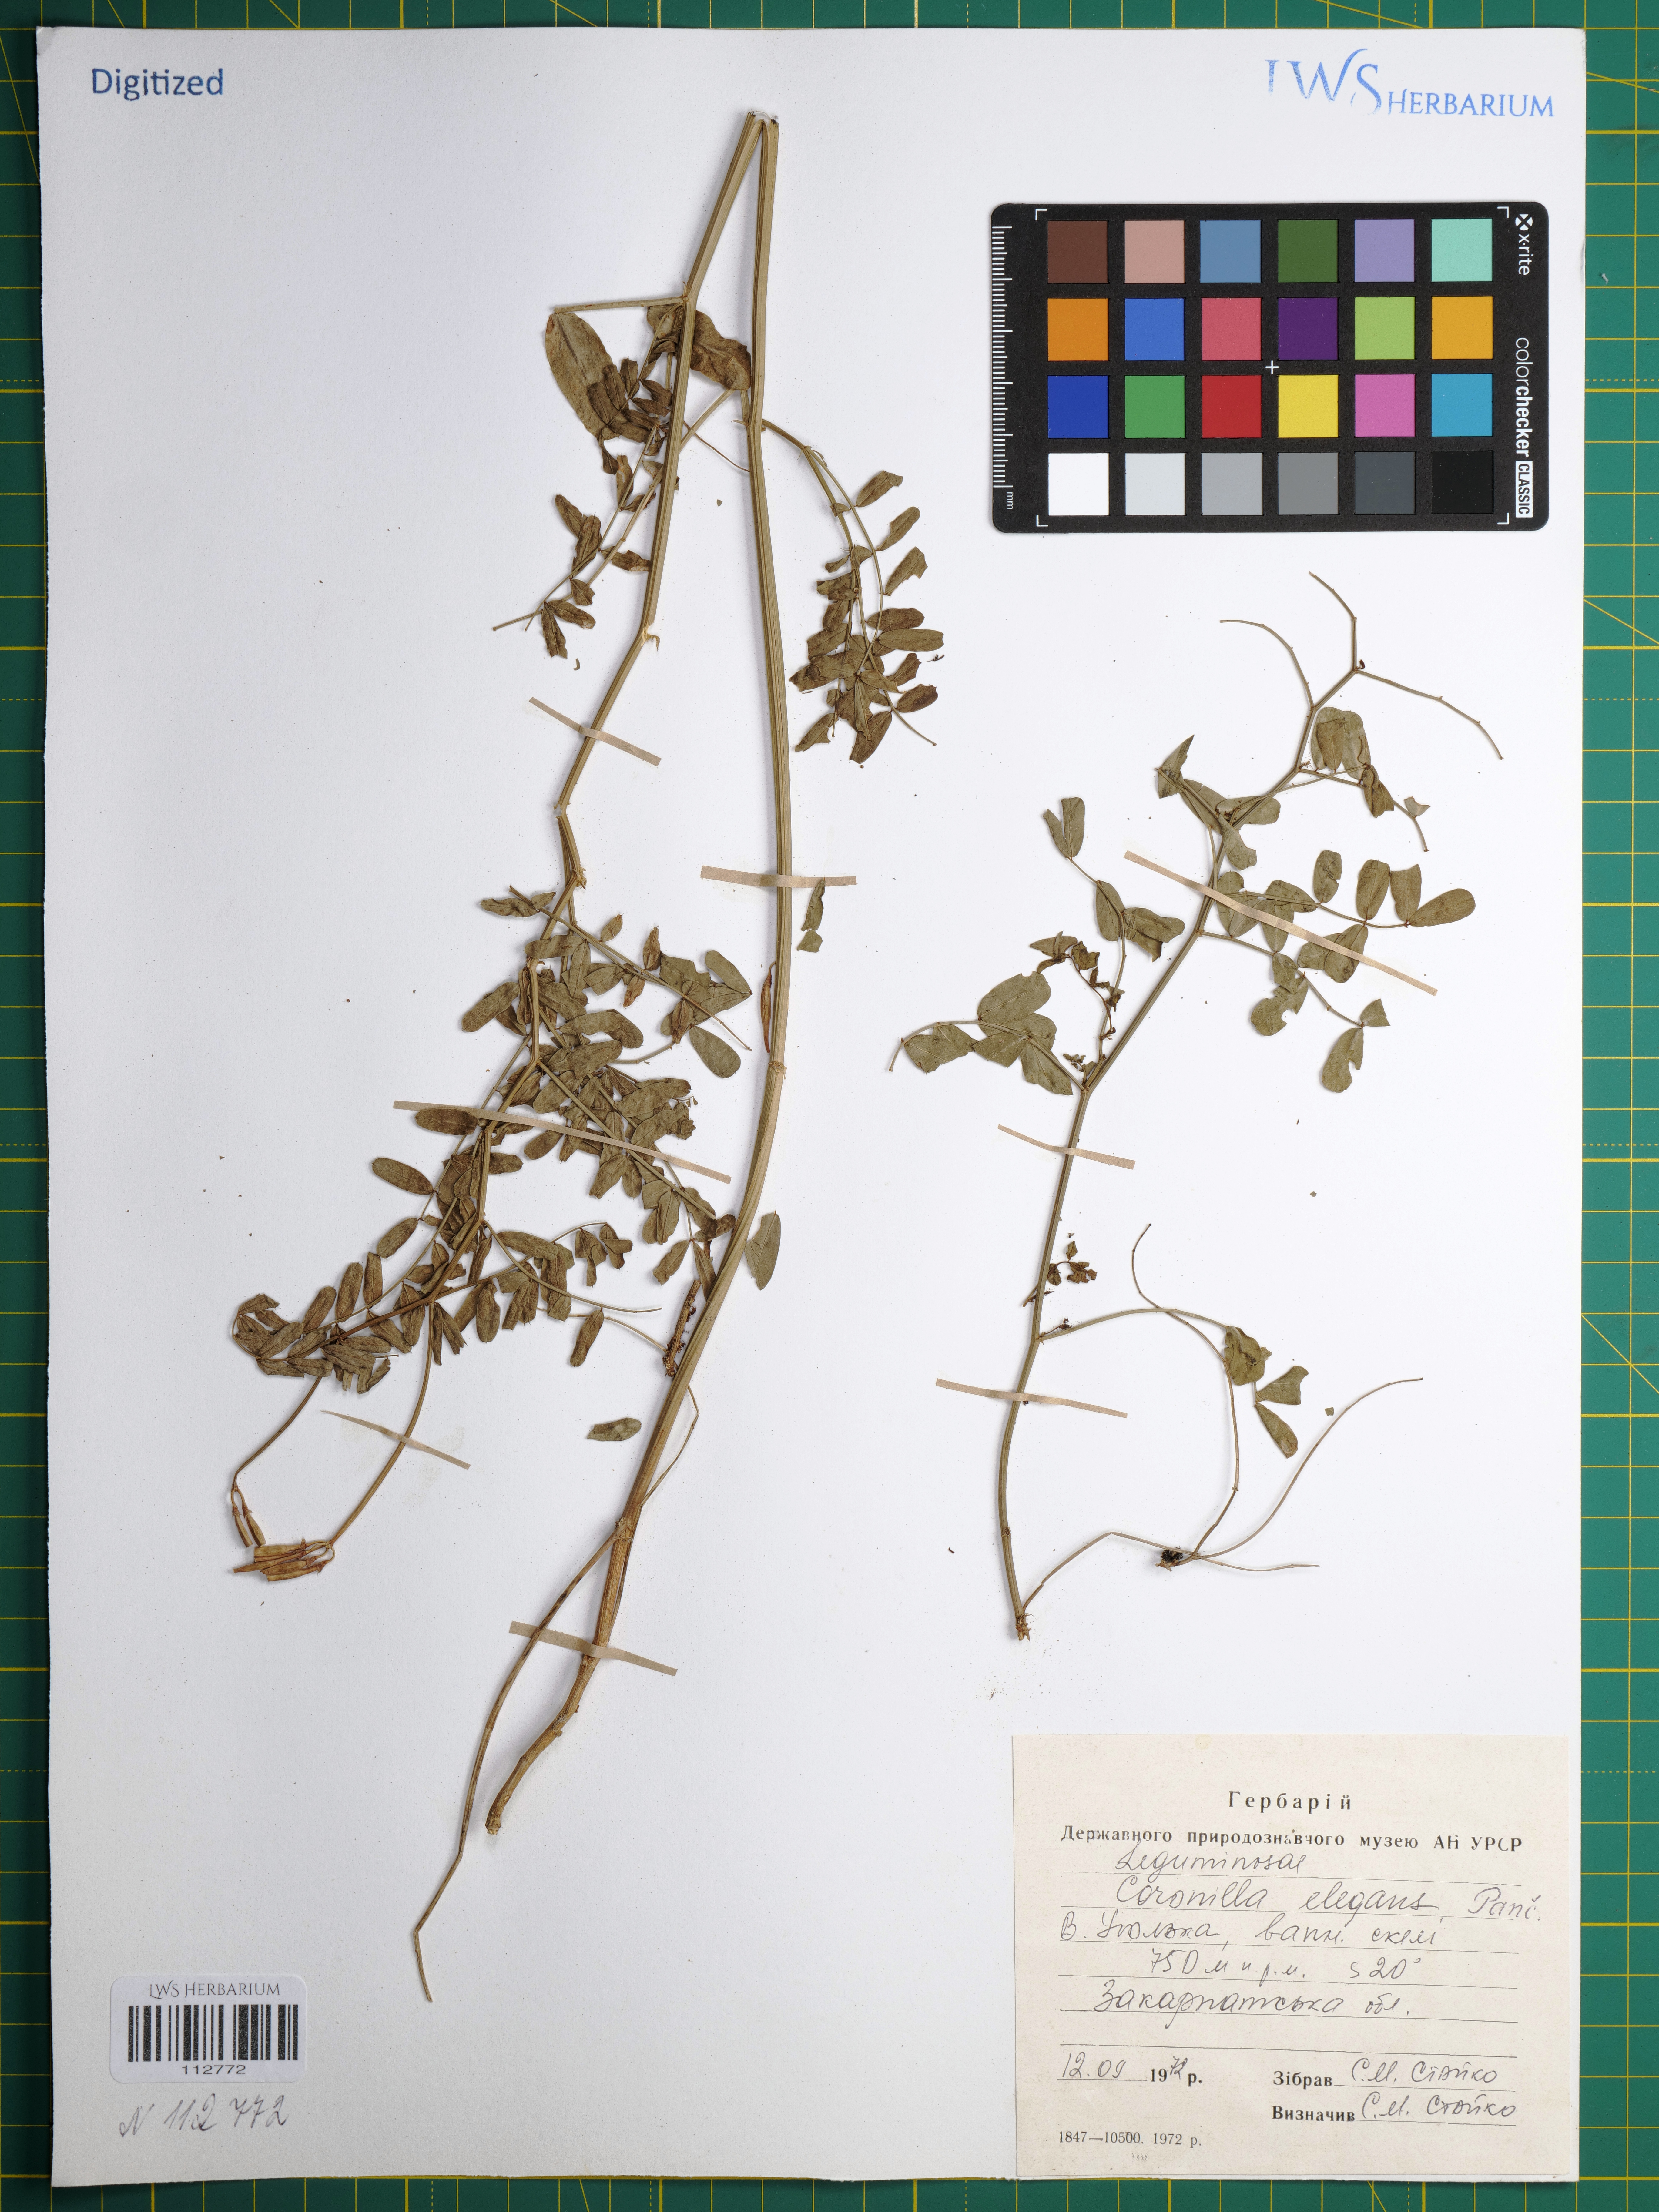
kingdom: Plantae
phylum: Tracheophyta
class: Magnoliopsida
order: Fabales
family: Fabaceae
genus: Coronilla
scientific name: Coronilla elegans
